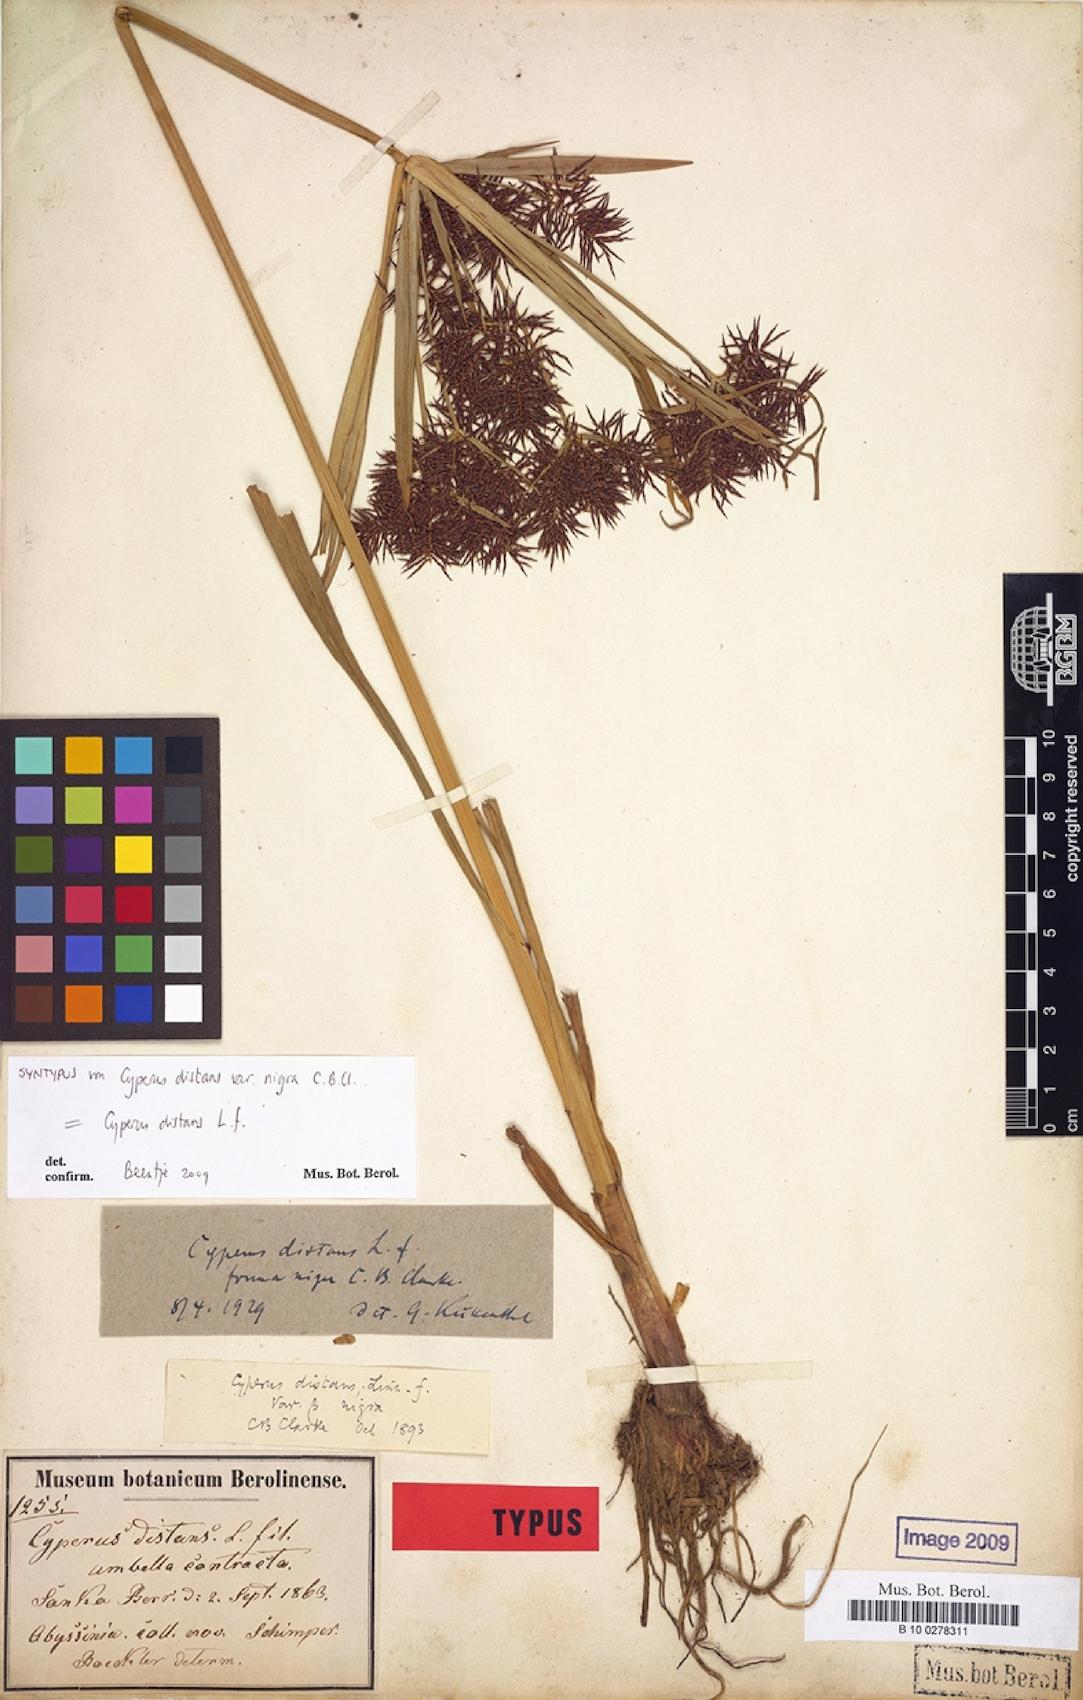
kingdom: Plantae
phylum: Tracheophyta
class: Liliopsida
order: Poales
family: Cyperaceae
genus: Cyperus
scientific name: Cyperus distans
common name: Slender cyperus
